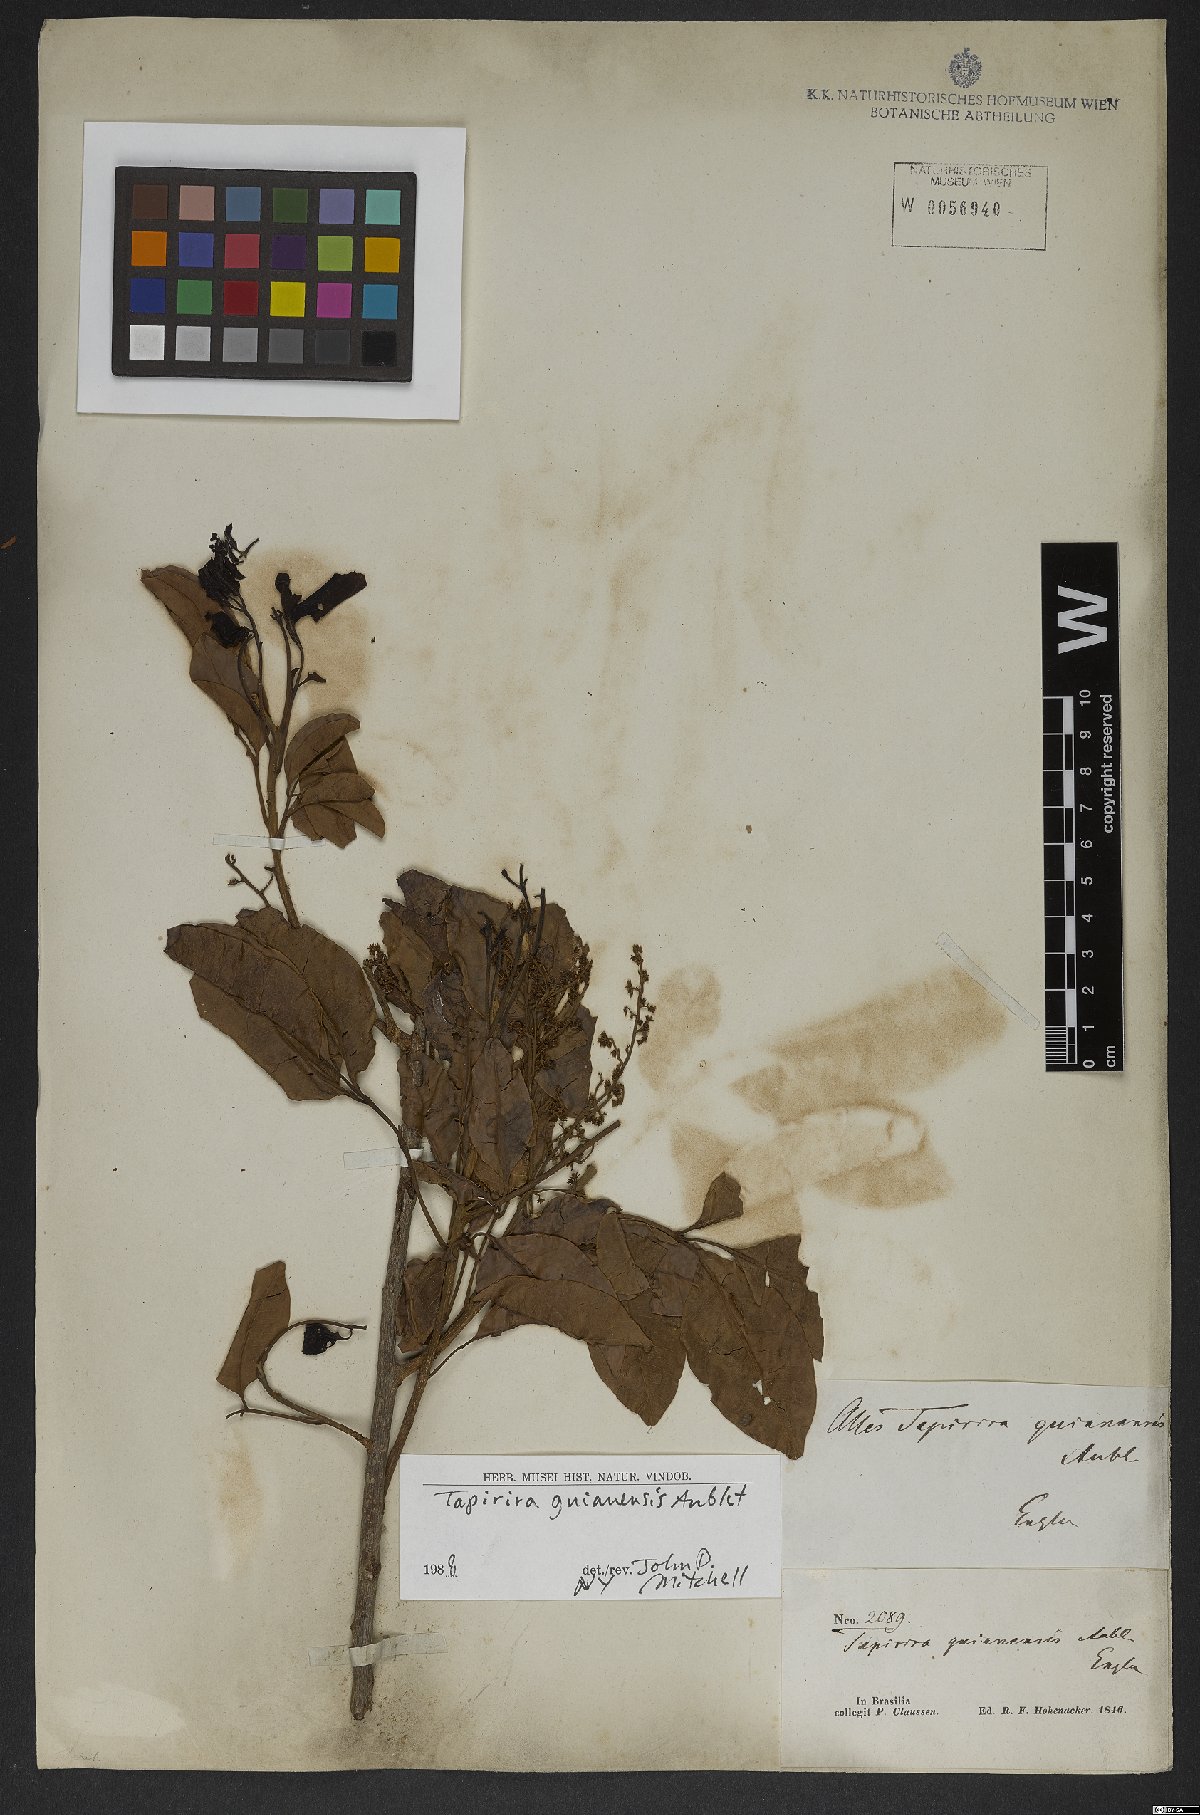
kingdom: Plantae
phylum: Tracheophyta
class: Magnoliopsida
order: Sapindales
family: Anacardiaceae
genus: Tapirira
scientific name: Tapirira guianensis
